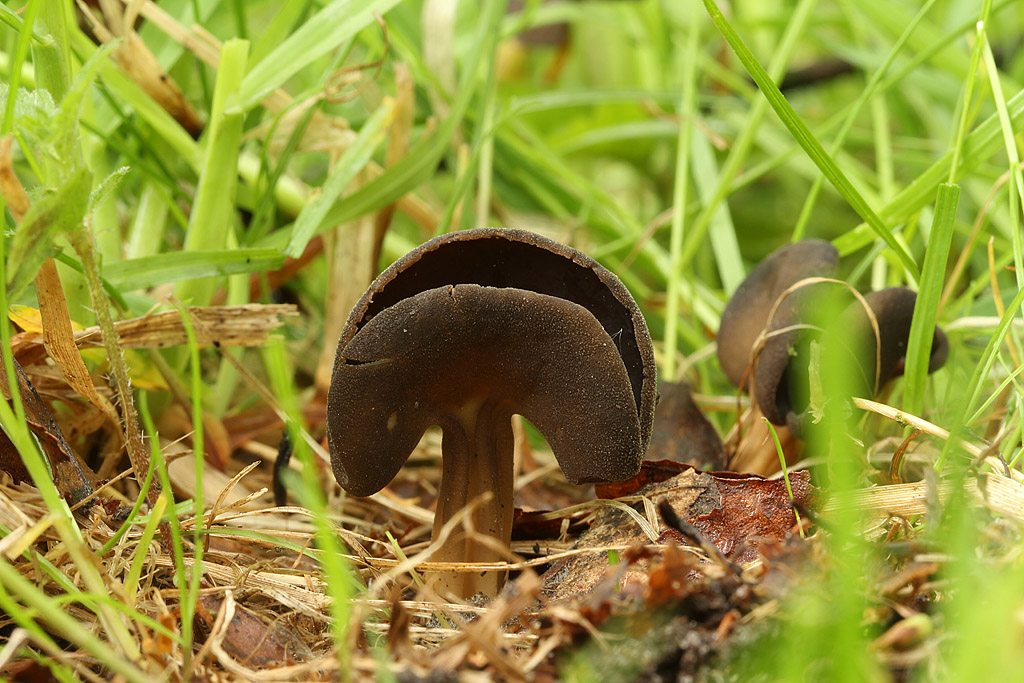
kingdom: Fungi
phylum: Ascomycota
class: Pezizomycetes
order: Pezizales
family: Helvellaceae
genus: Helvella
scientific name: Helvella solitaria
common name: Quélets foldhat
